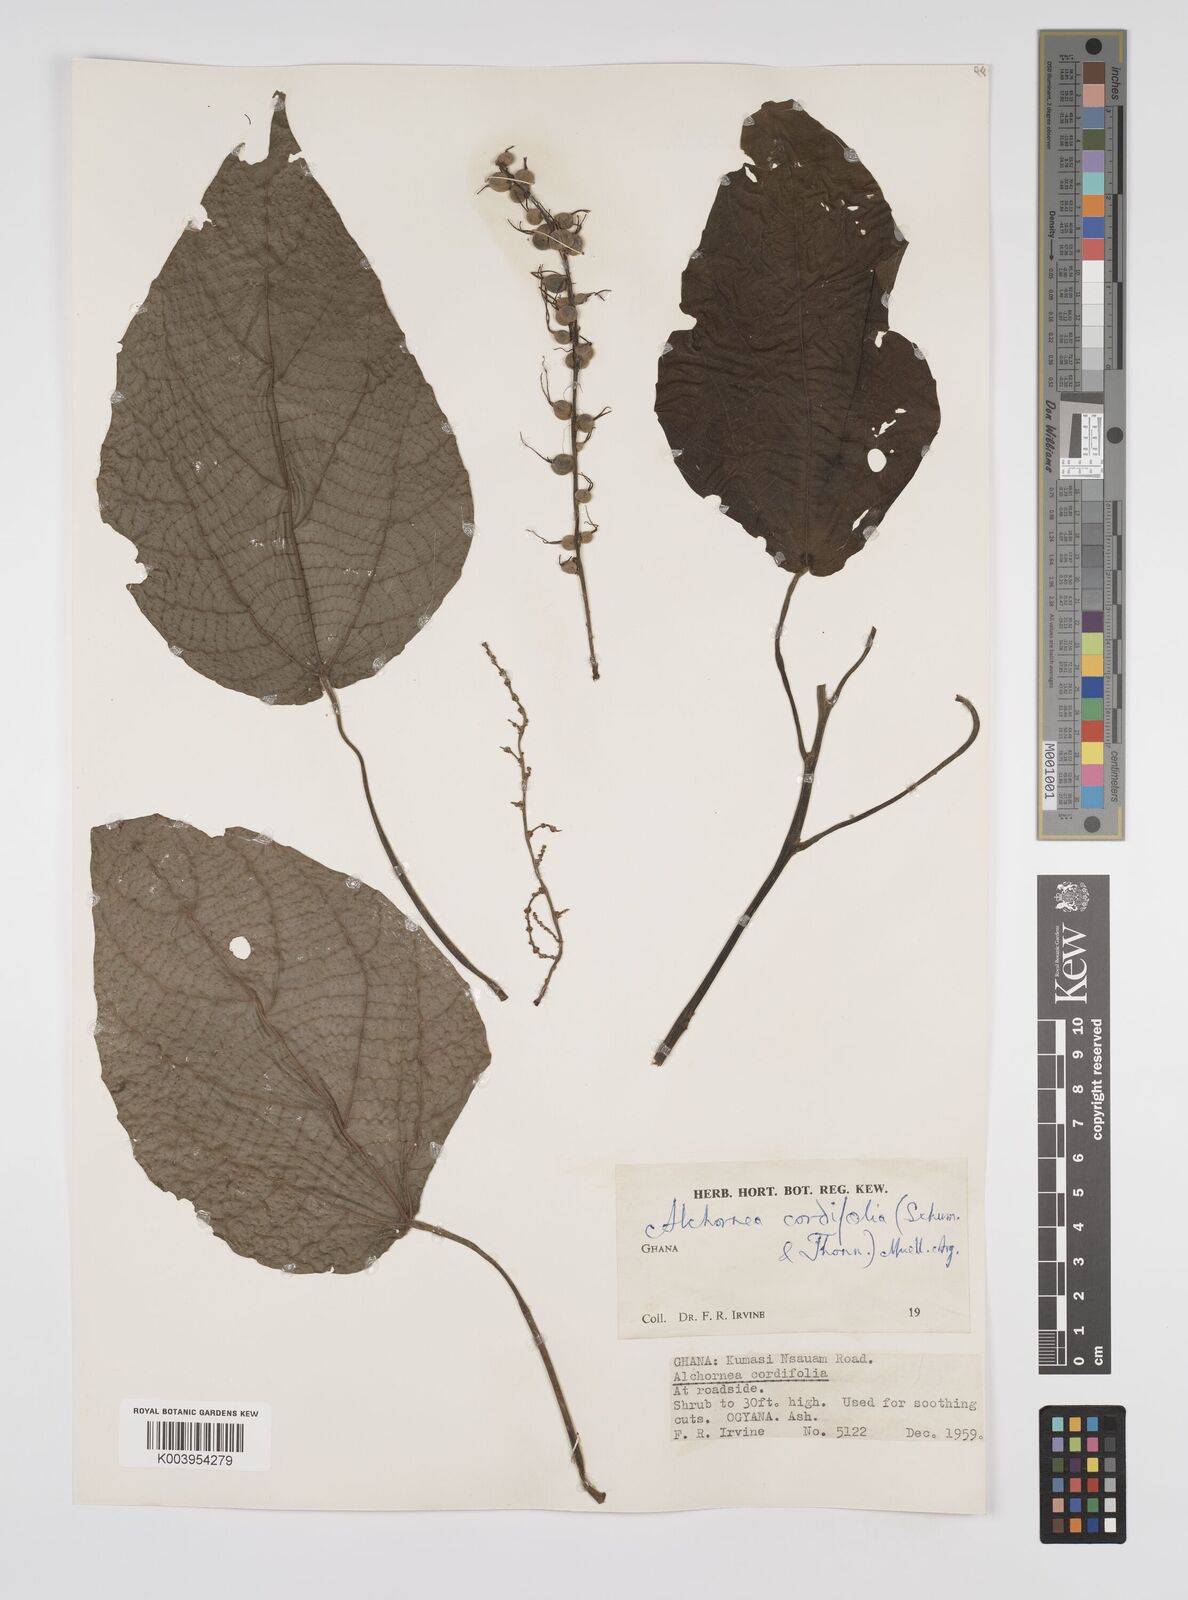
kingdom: Plantae
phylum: Tracheophyta
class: Magnoliopsida
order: Malpighiales
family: Euphorbiaceae
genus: Alchornea
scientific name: Alchornea cordifolia
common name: Christmasbush
